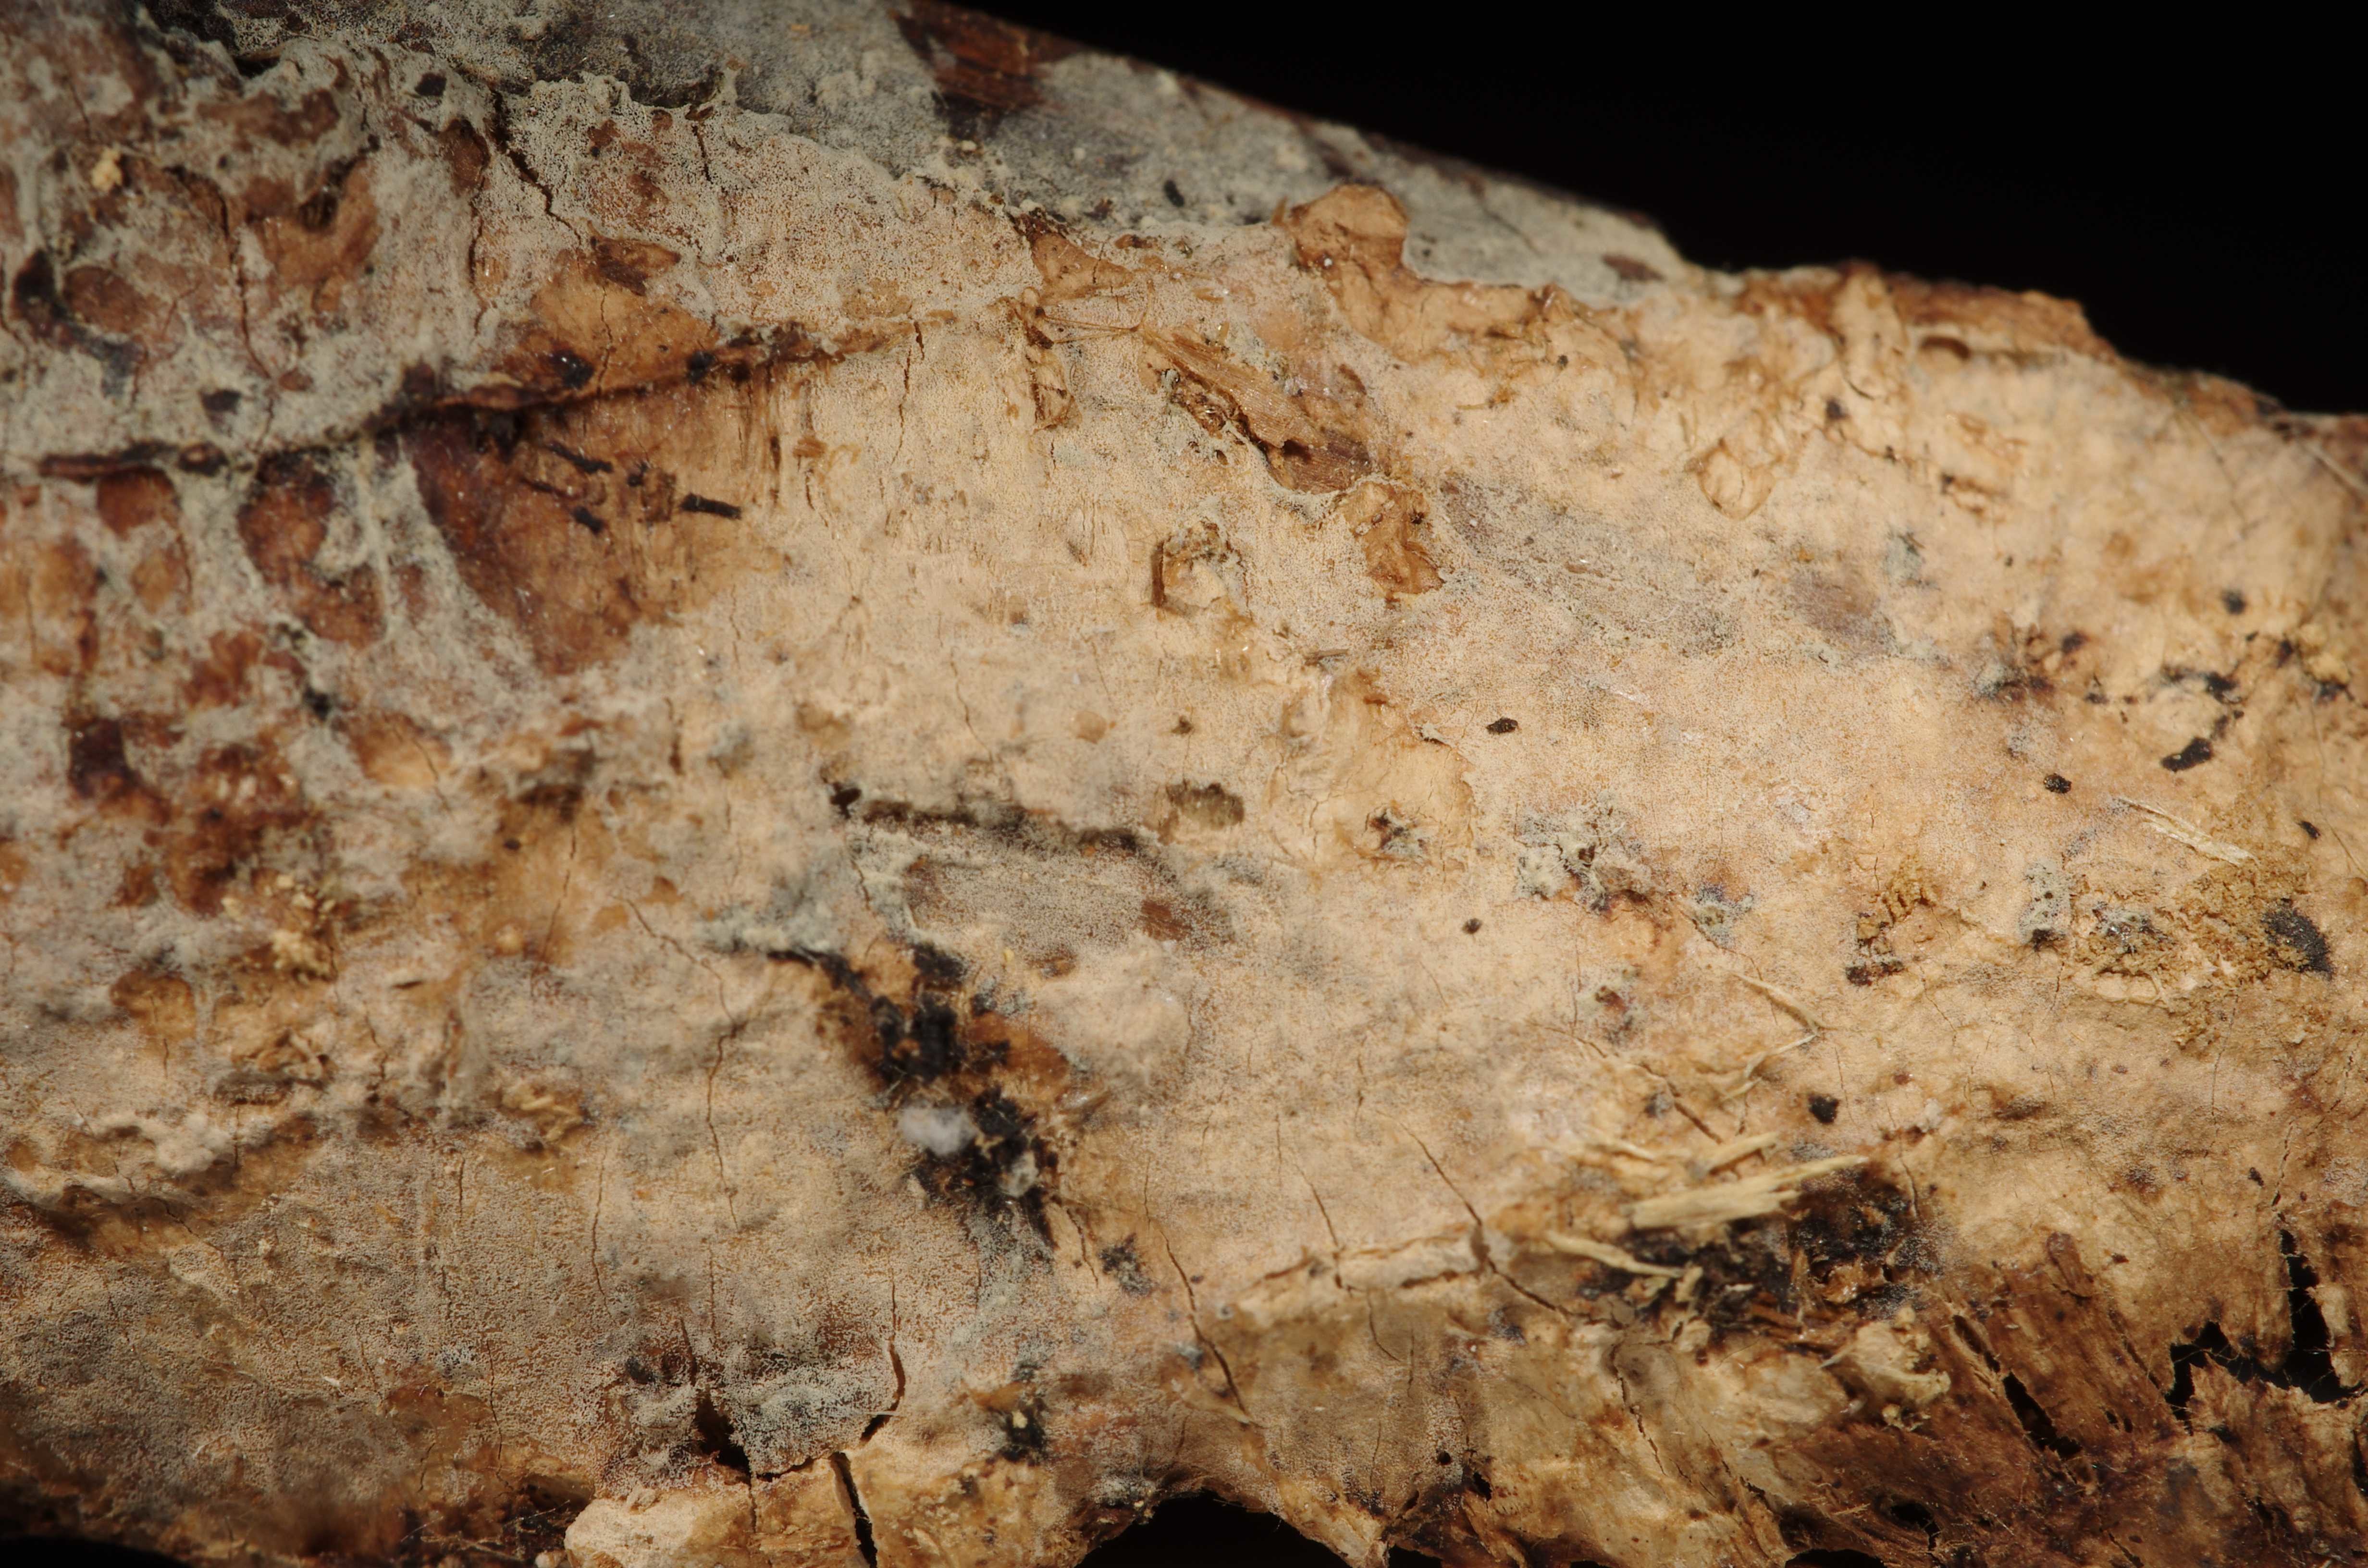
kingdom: Fungi
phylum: Basidiomycota
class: Agaricomycetes
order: Cantharellales
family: Hydnaceae
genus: Sistotrema
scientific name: Sistotrema
